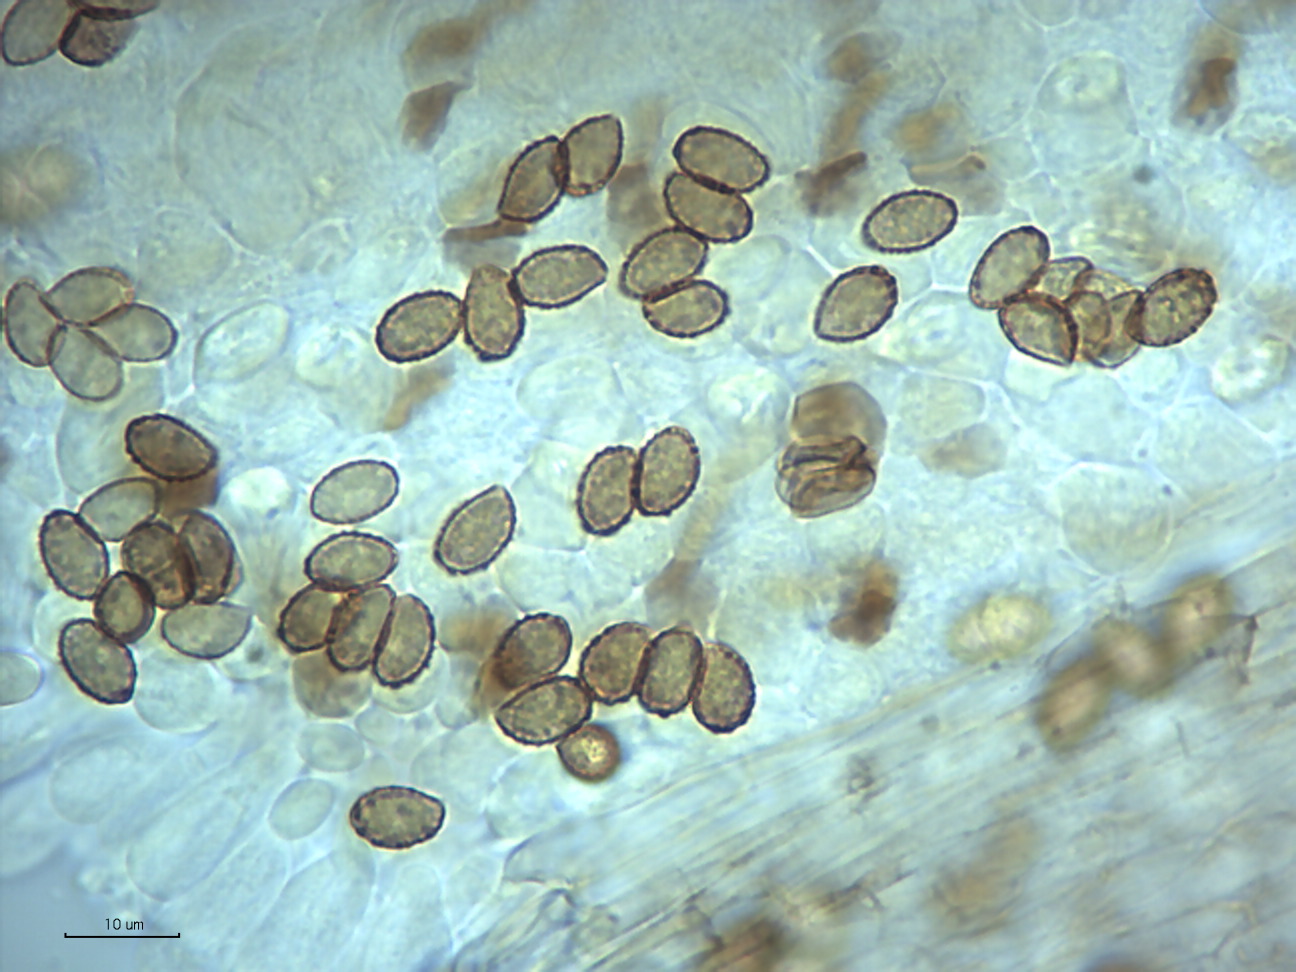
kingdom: Fungi
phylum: Basidiomycota
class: Agaricomycetes
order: Agaricales
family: Cortinariaceae
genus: Cortinarius
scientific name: Cortinarius decipiens
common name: blåsort slørhat
